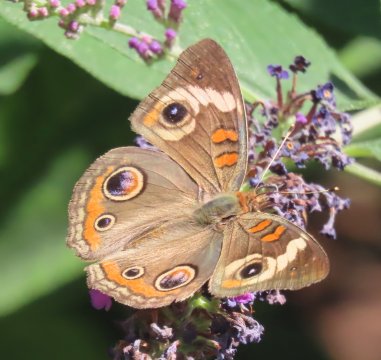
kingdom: Animalia
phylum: Arthropoda
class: Insecta
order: Lepidoptera
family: Nymphalidae
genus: Junonia
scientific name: Junonia coenia
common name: Common Buckeye
